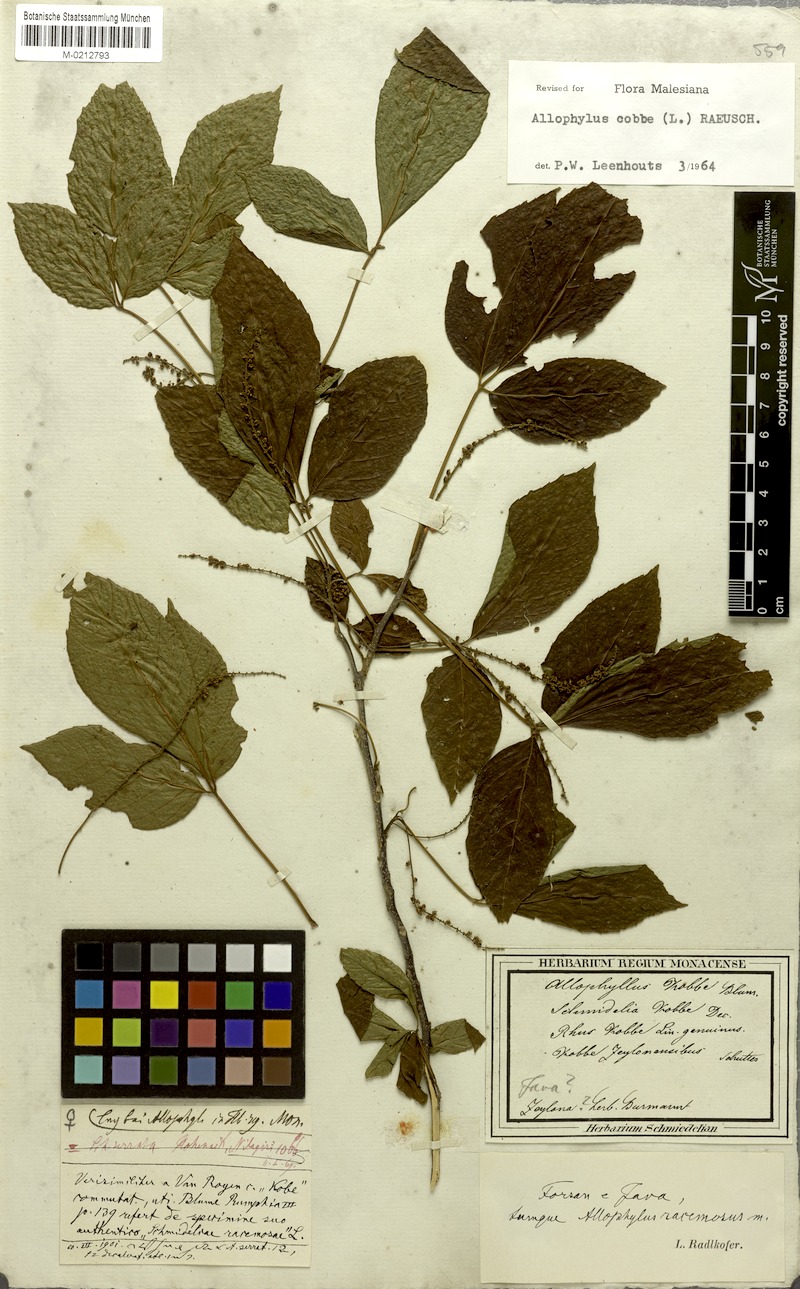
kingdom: Plantae
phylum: Tracheophyta
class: Magnoliopsida
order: Sapindales
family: Sapindaceae
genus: Allophylus
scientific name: Allophylus cobbe
